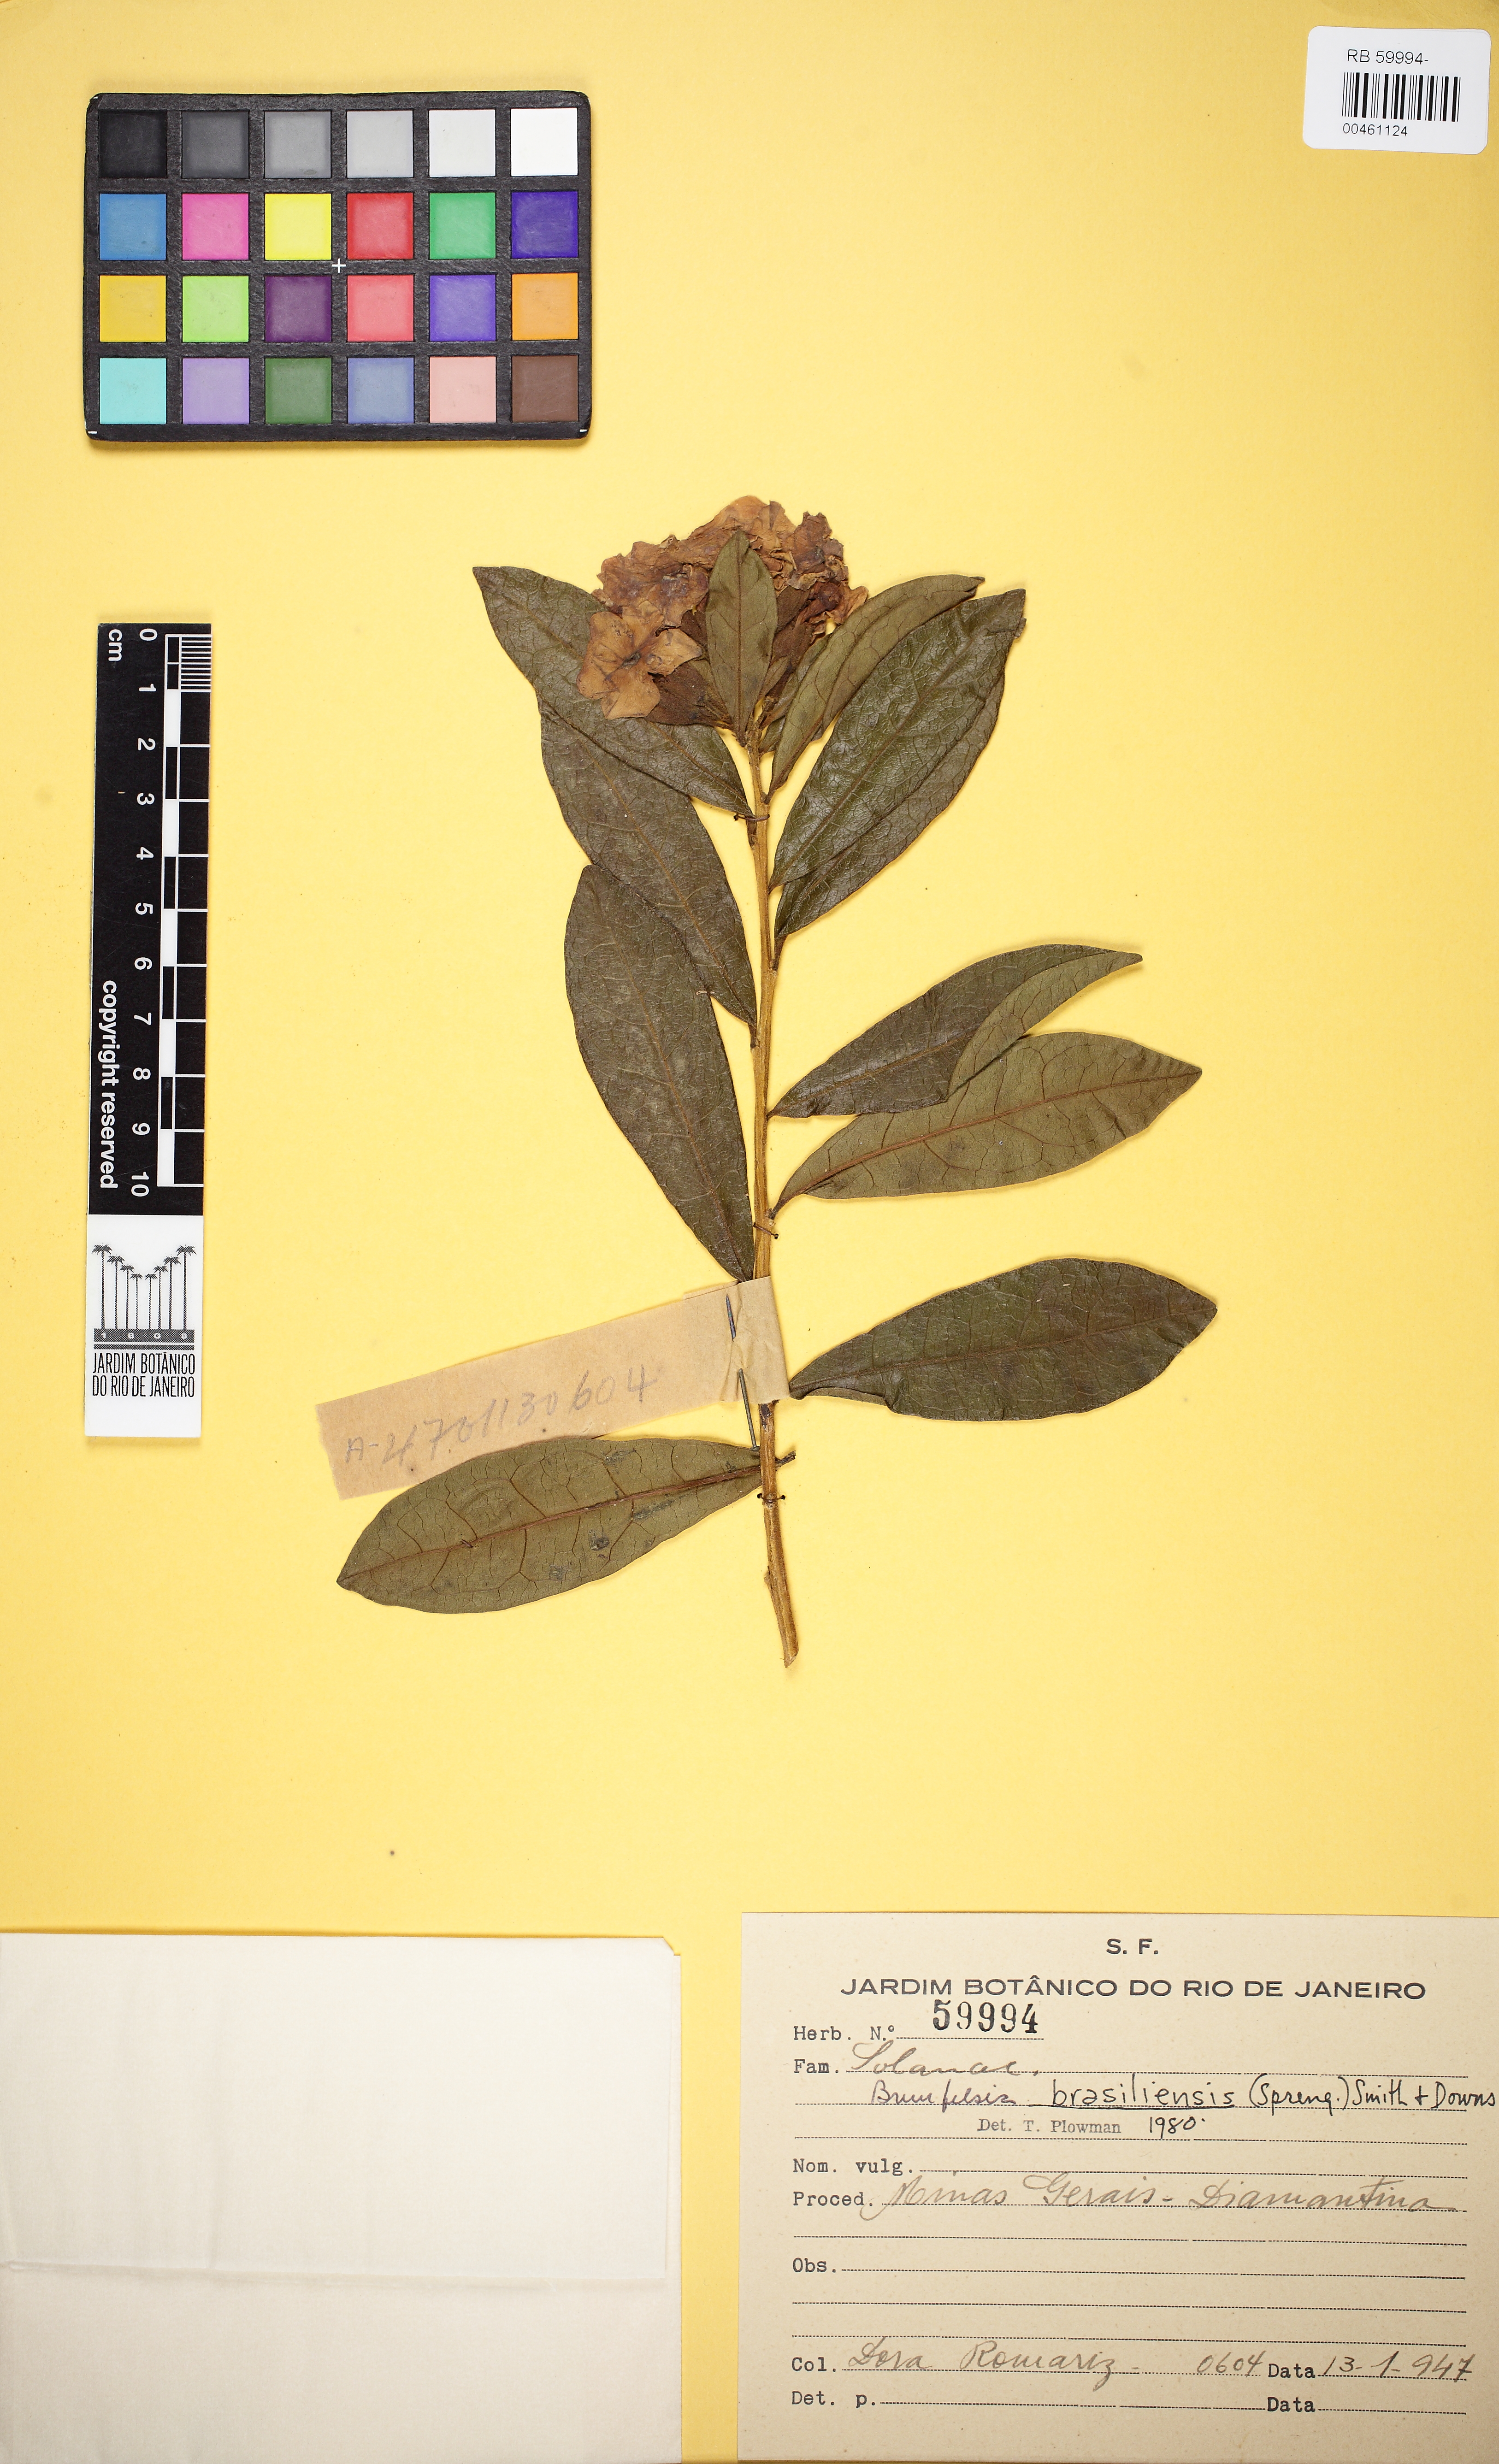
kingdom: Plantae
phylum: Tracheophyta
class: Magnoliopsida
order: Solanales
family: Solanaceae
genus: Brunfelsia
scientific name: Brunfelsia brasiliensis
